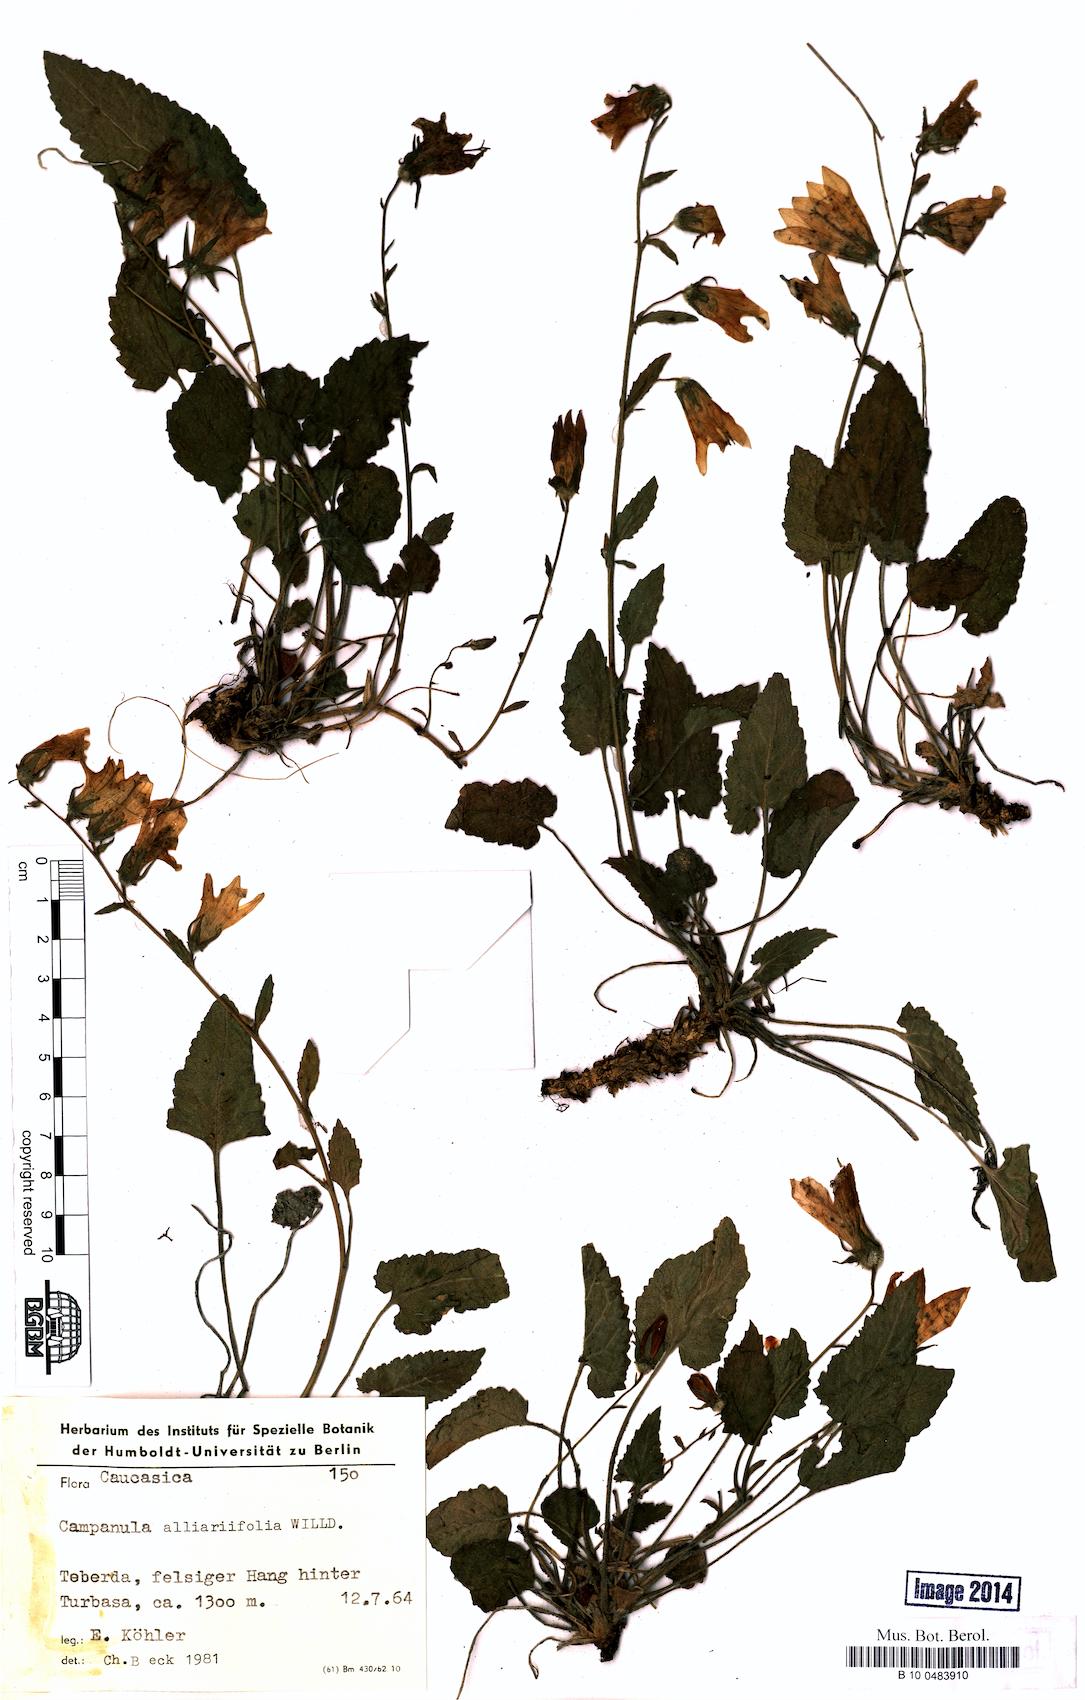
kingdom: Plantae
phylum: Tracheophyta
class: Magnoliopsida
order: Asterales
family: Campanulaceae
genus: Campanula
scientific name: Campanula alliariifolia
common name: Cornish bellflower
